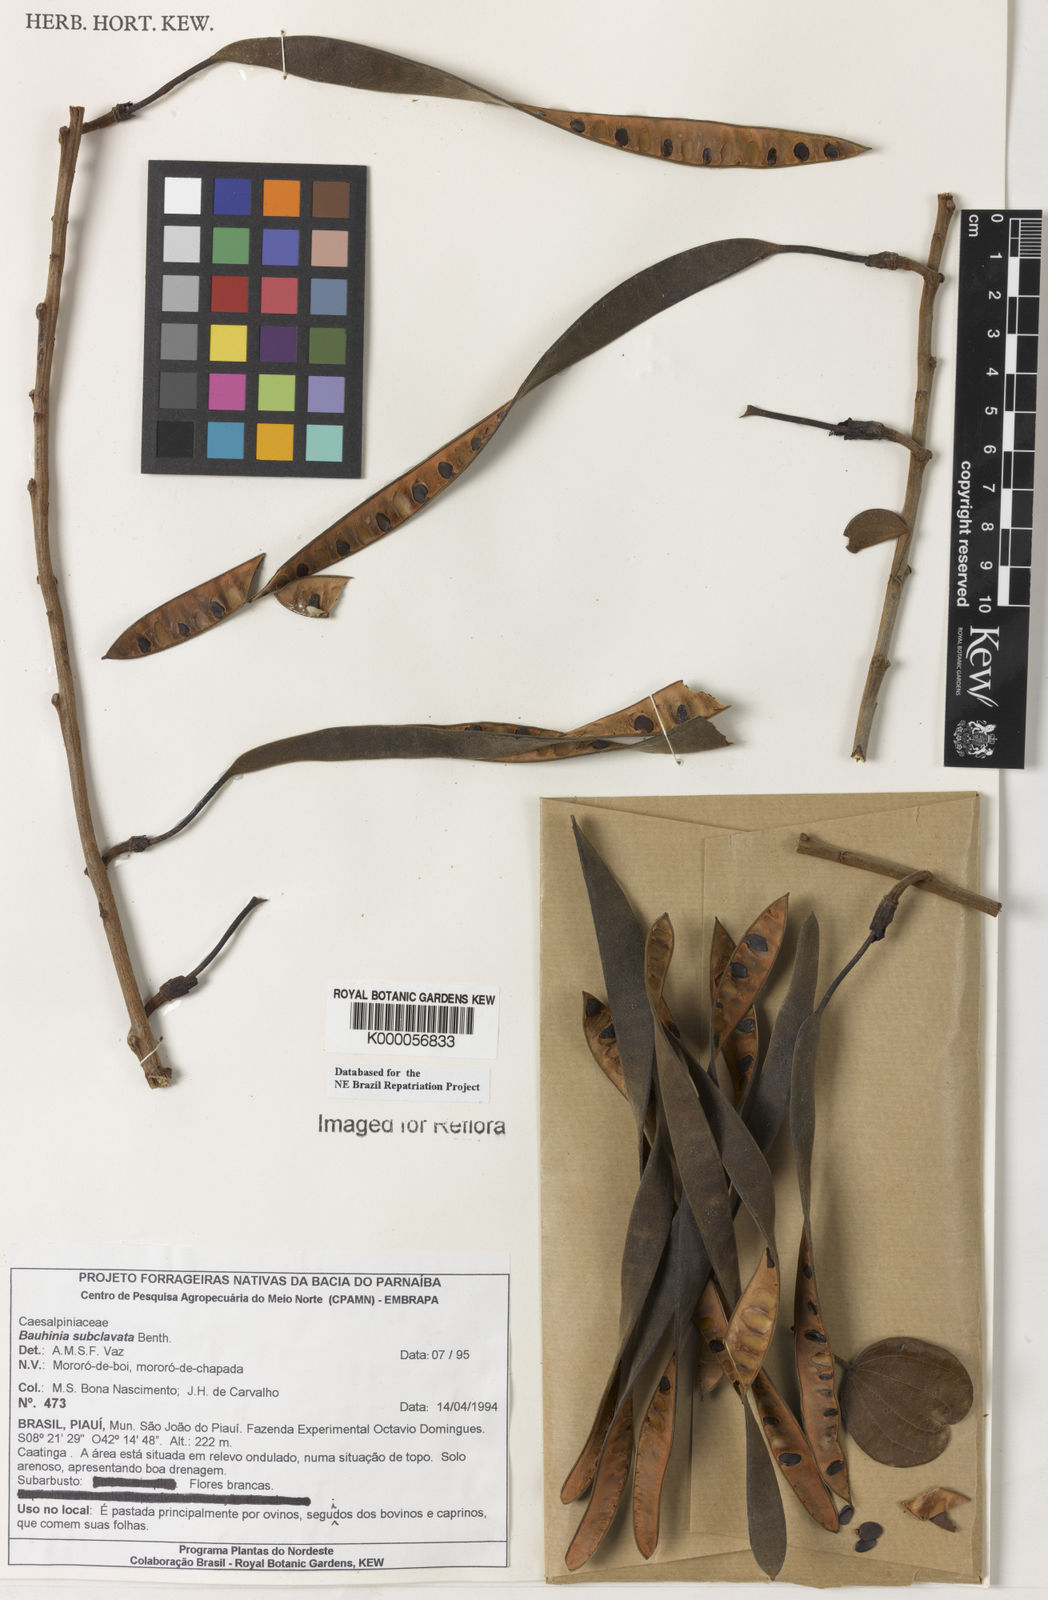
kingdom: Plantae
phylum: Tracheophyta
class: Magnoliopsida
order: Fabales
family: Fabaceae
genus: Bauhinia
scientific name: Bauhinia subclavata
